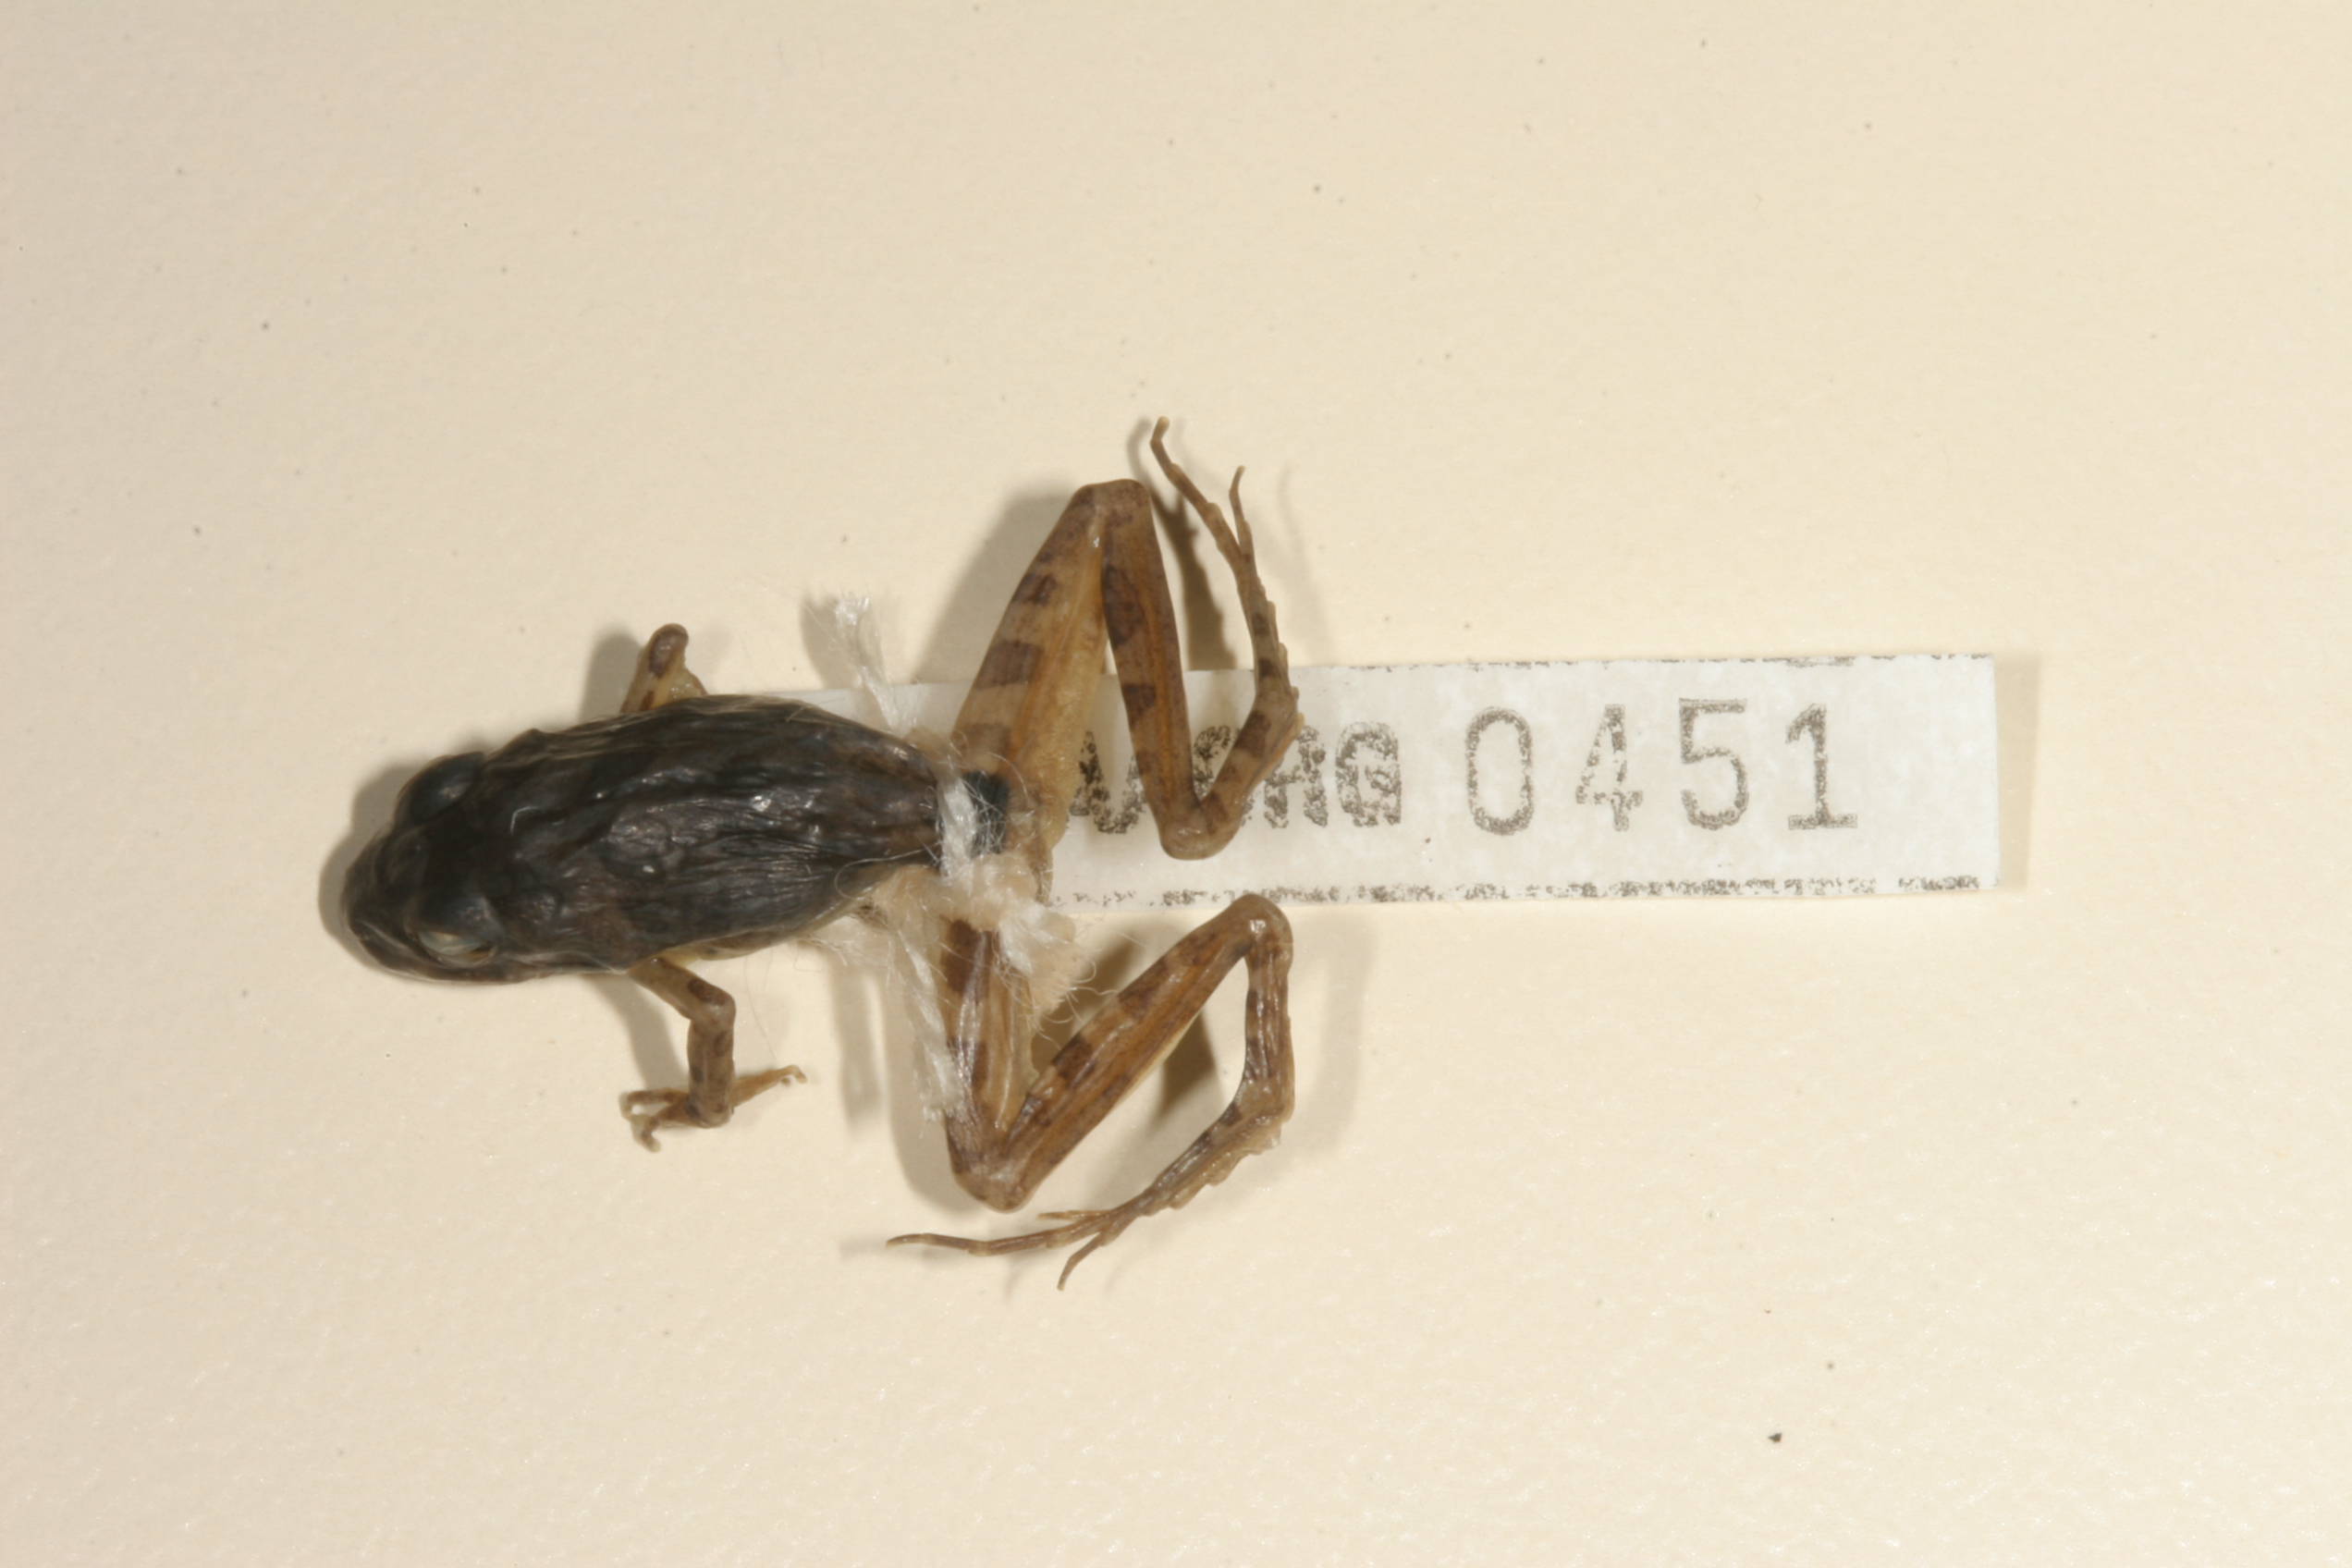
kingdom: Animalia
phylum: Chordata
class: Amphibia
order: Anura
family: Pyxicephalidae
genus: Strongylopus
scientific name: Strongylopus grayii
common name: Gray's stream frog
